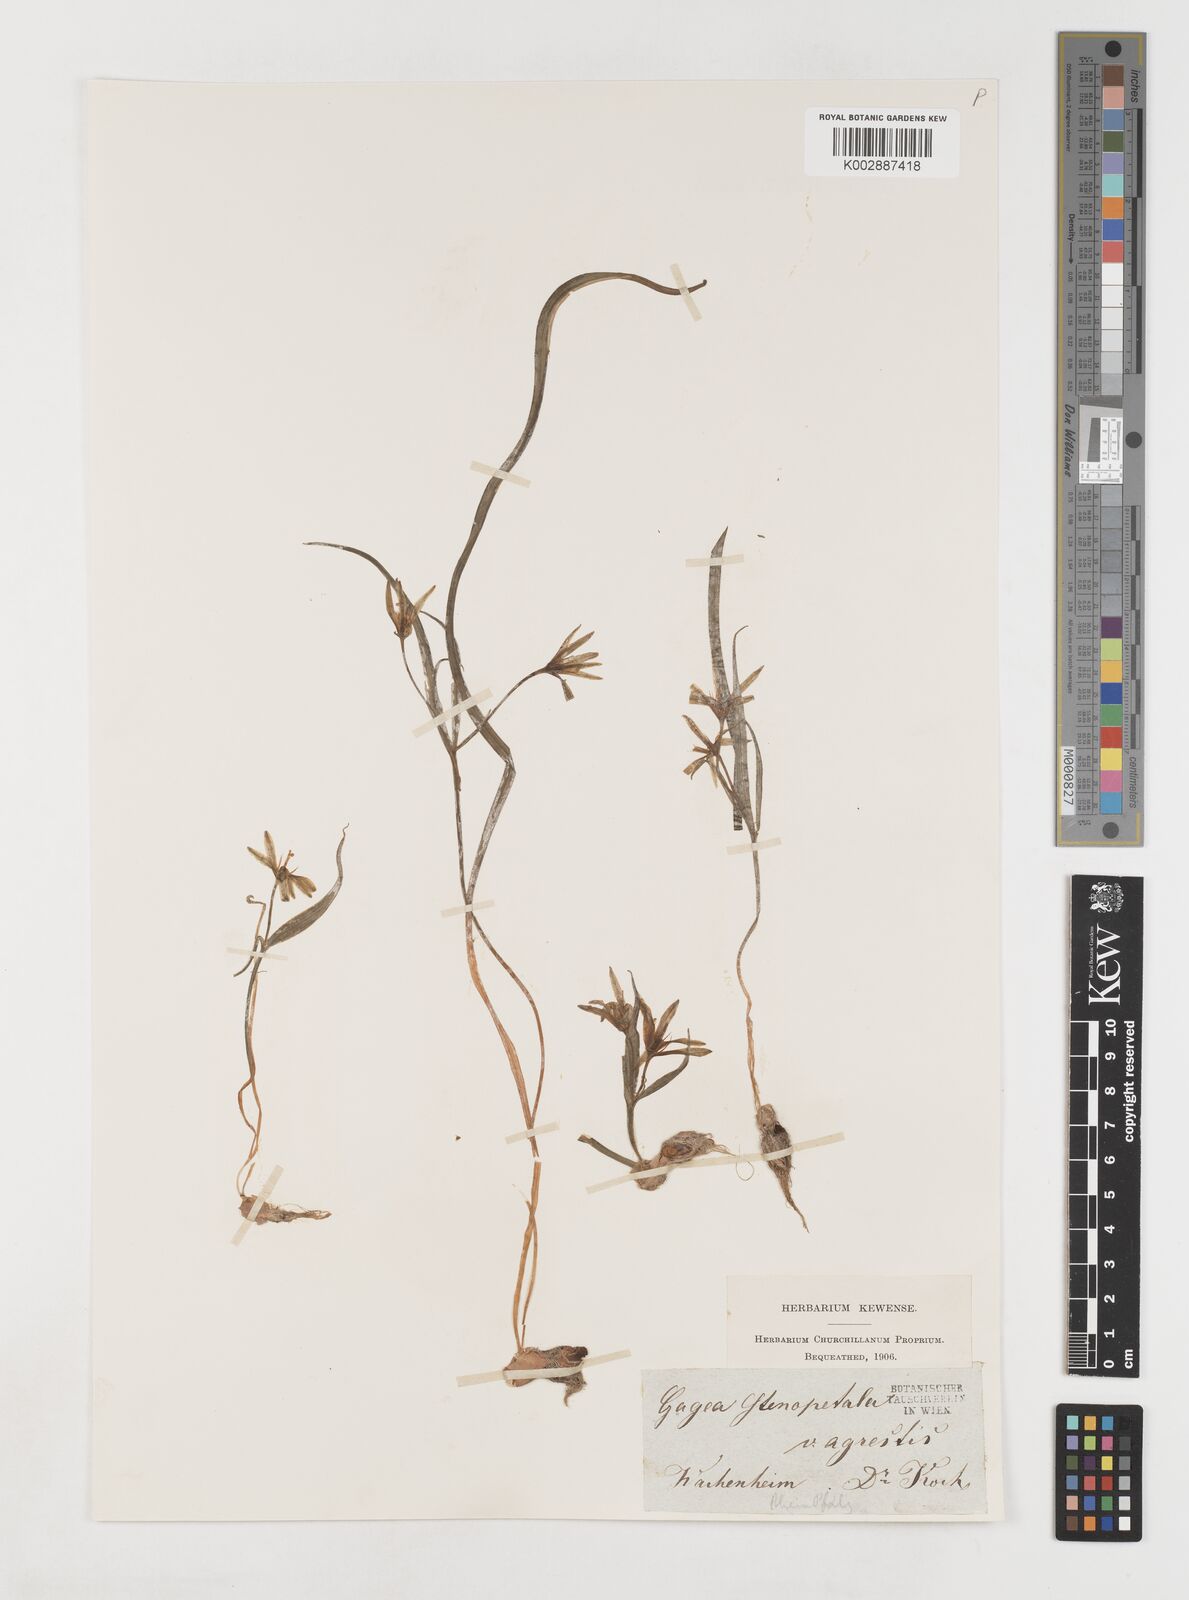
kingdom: Plantae
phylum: Tracheophyta
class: Liliopsida
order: Liliales
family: Liliaceae
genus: Gagea
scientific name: Gagea pratensis
